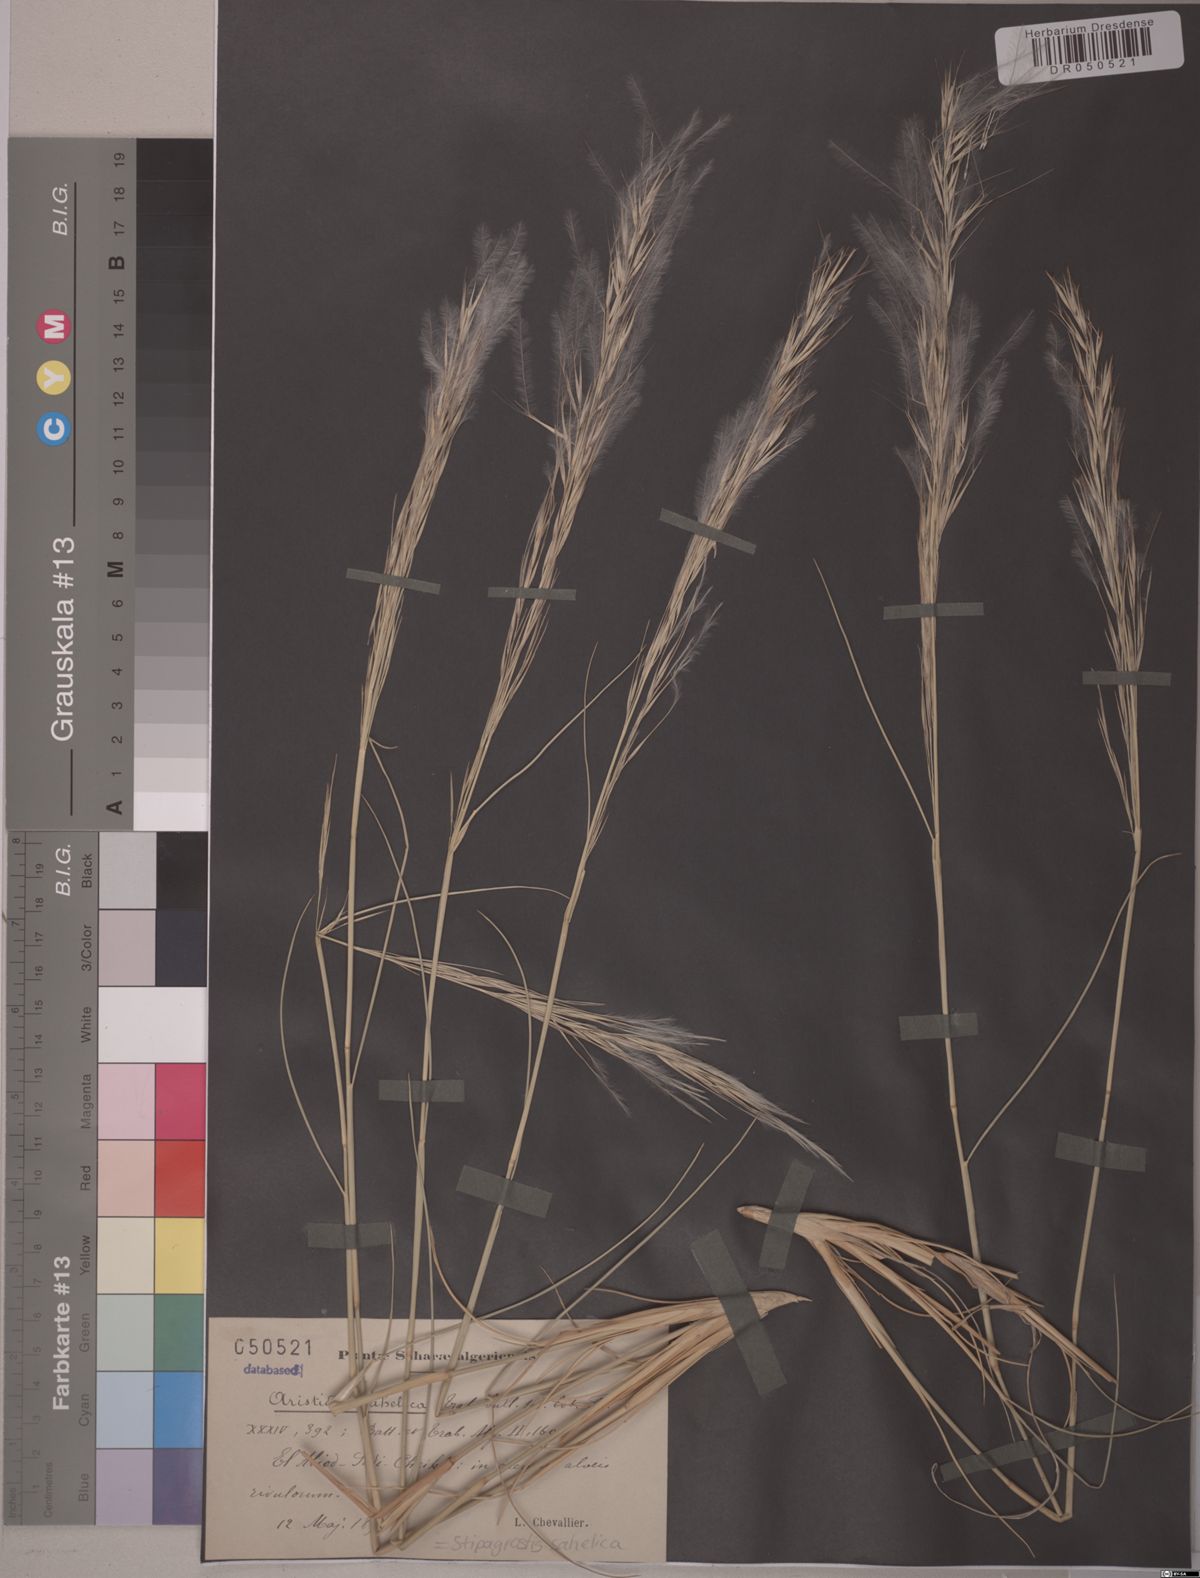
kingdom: Plantae
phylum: Tracheophyta
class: Liliopsida
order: Poales
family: Poaceae
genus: Stipagrostis
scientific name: Stipagrostis sahelica
